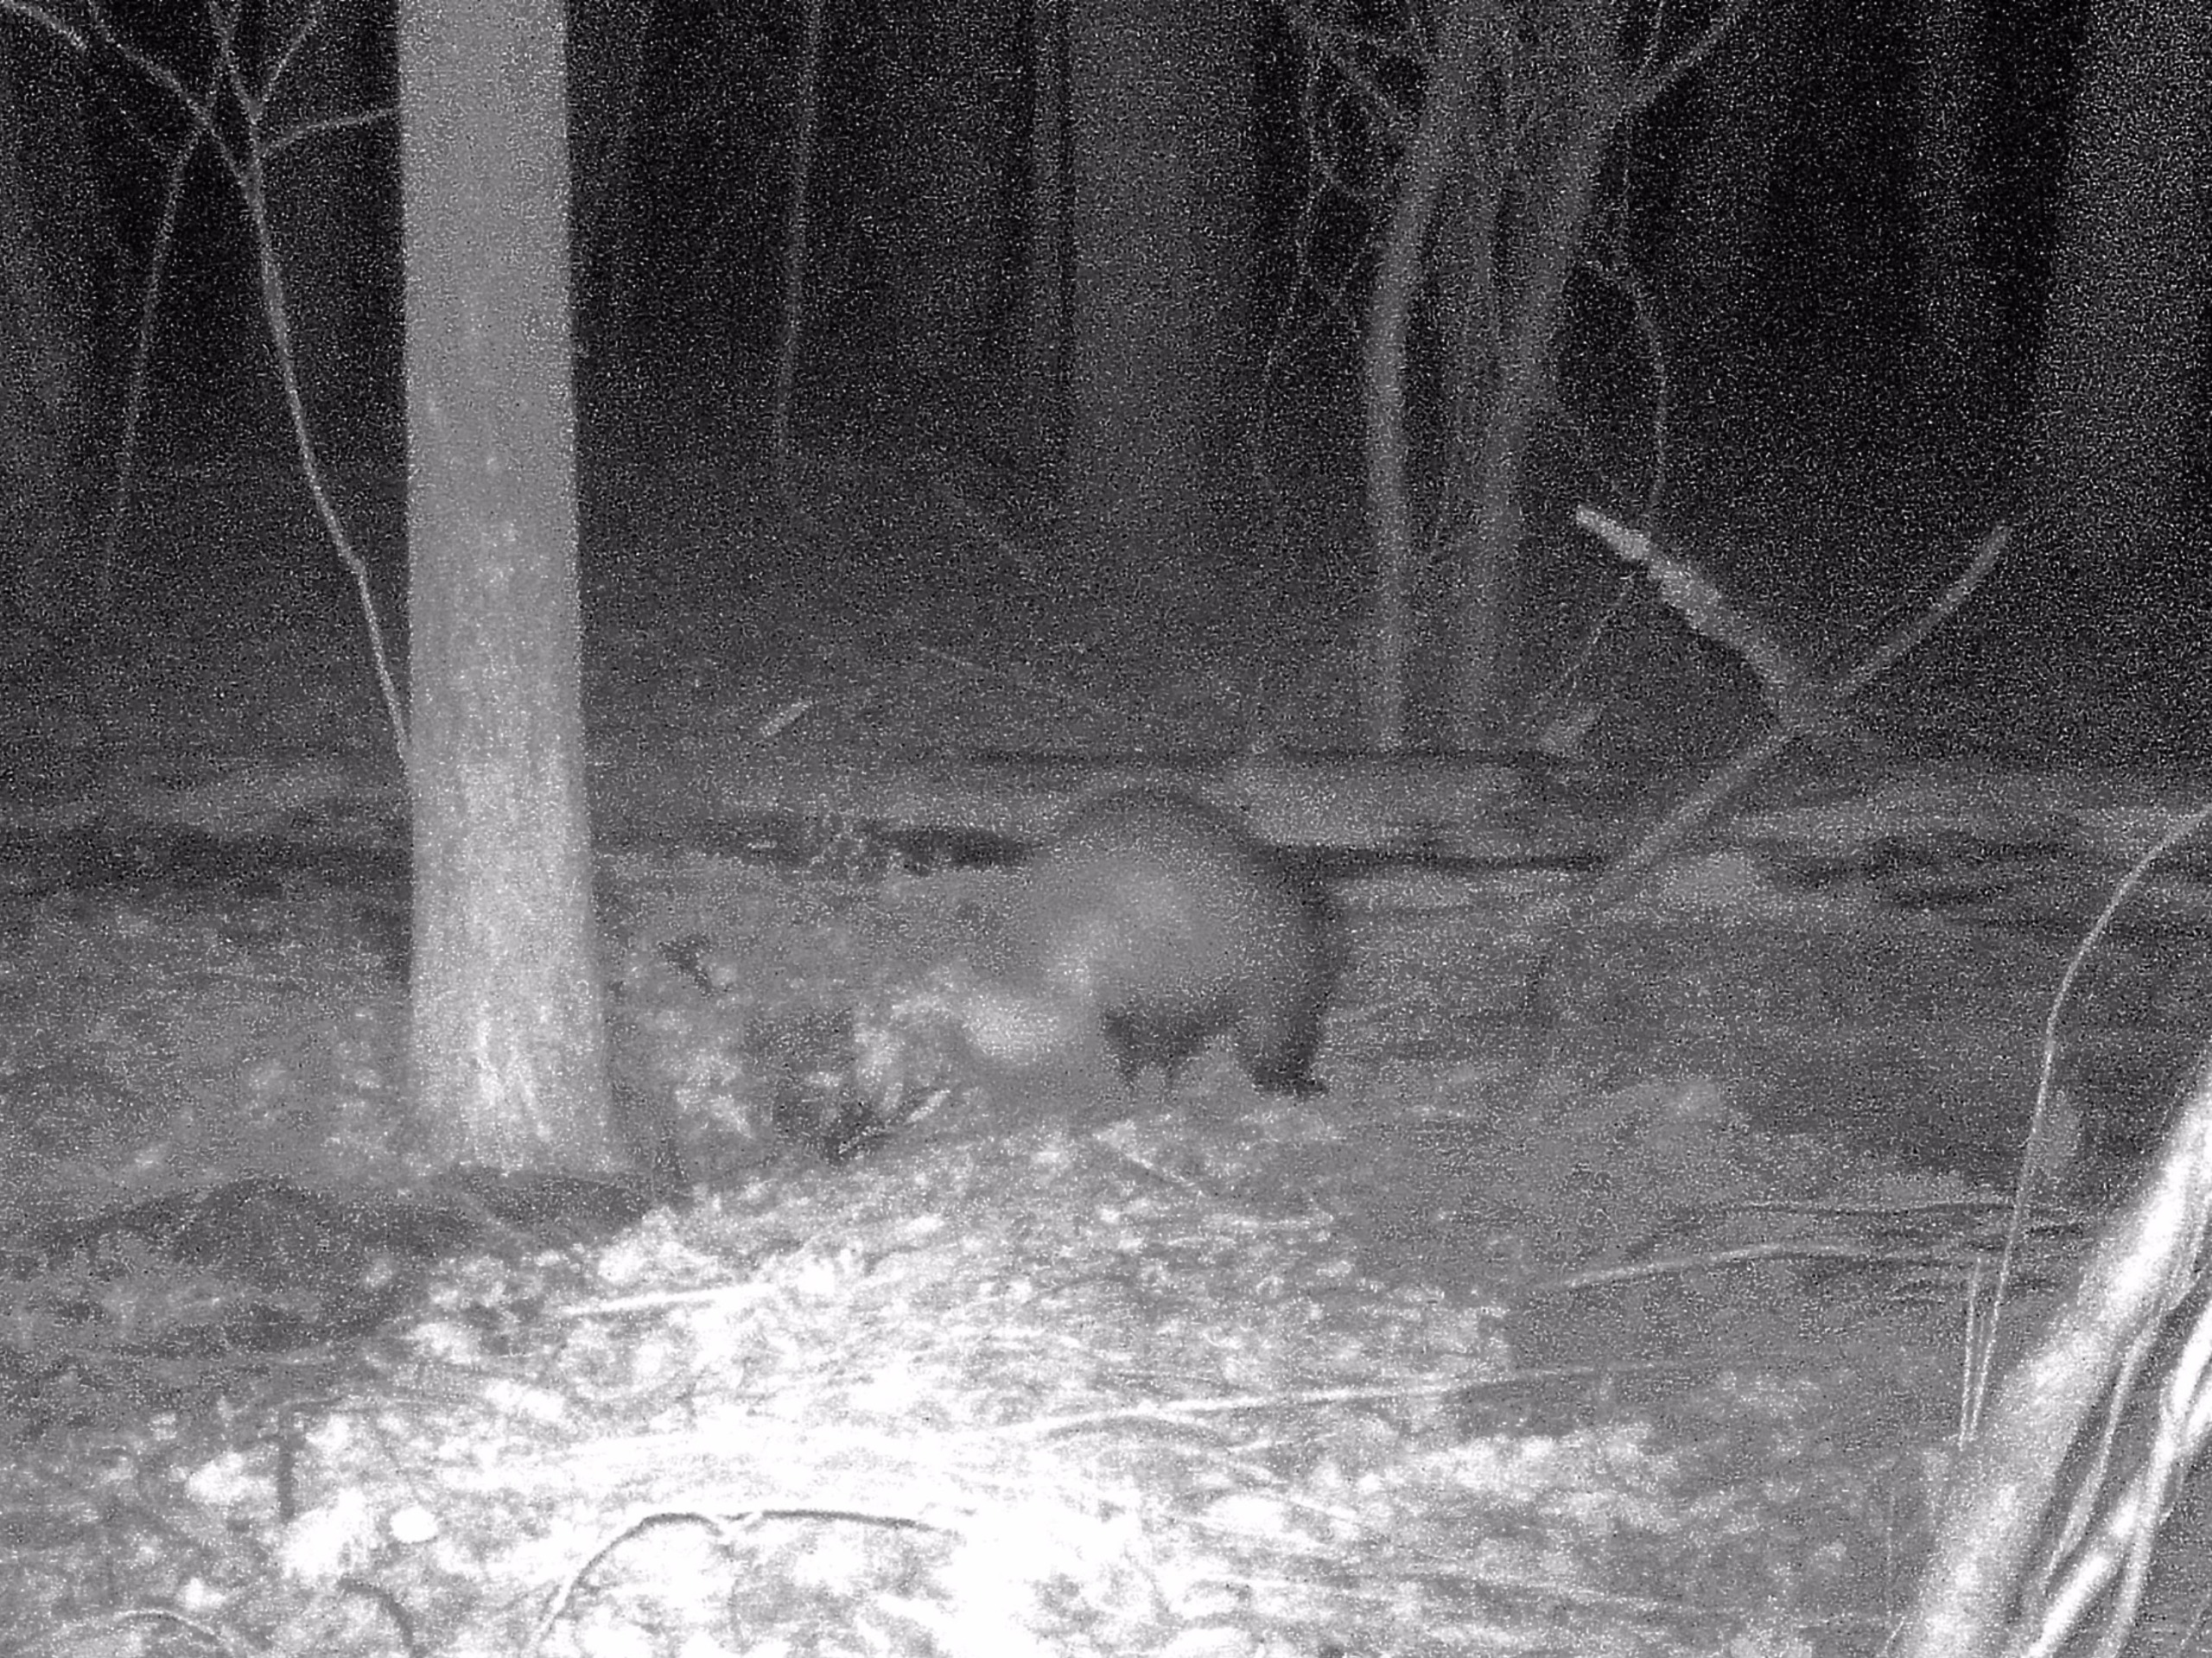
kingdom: Animalia
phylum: Chordata
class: Mammalia
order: Carnivora
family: Mustelidae
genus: Meles
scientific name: Meles meles
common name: Grævling
